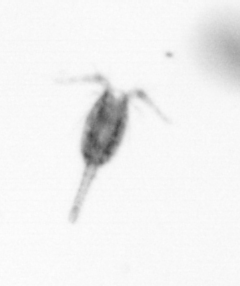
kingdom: Animalia
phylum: Arthropoda
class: Copepoda
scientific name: Copepoda
